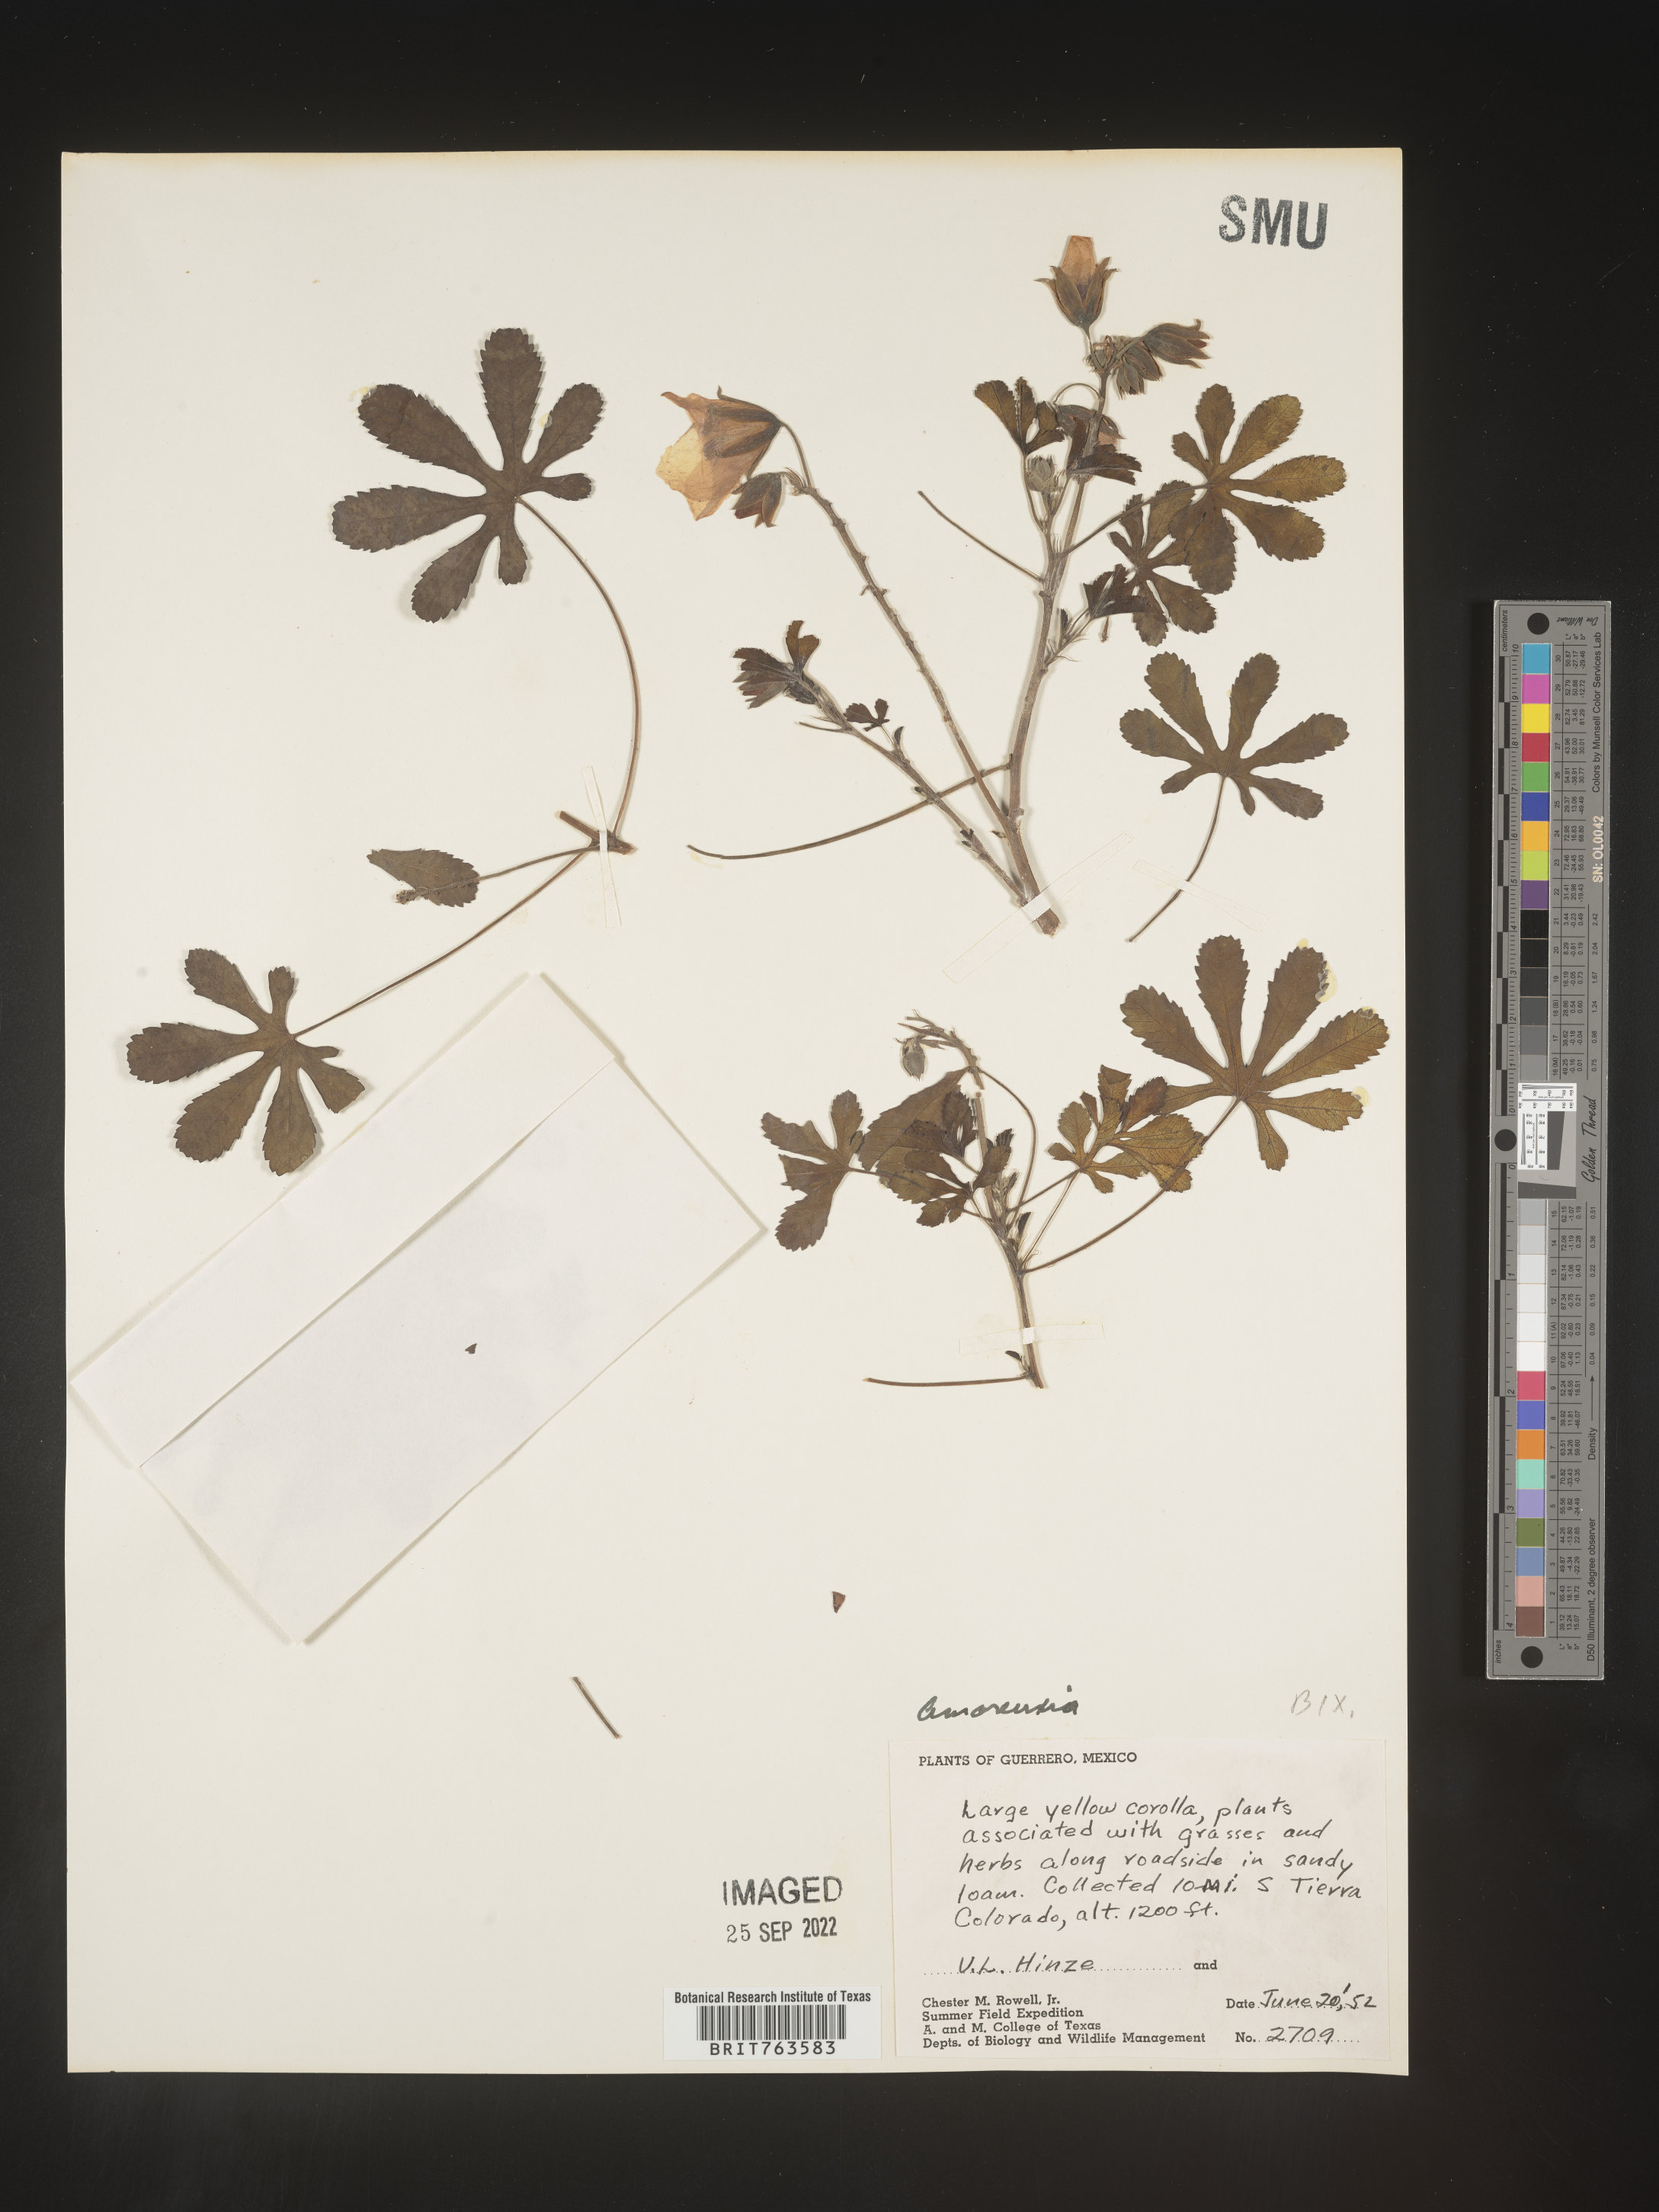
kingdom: Plantae
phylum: Tracheophyta
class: Magnoliopsida
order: Caryophyllales
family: Amaranthaceae
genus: Amoreuxia
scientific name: Amoreuxia
